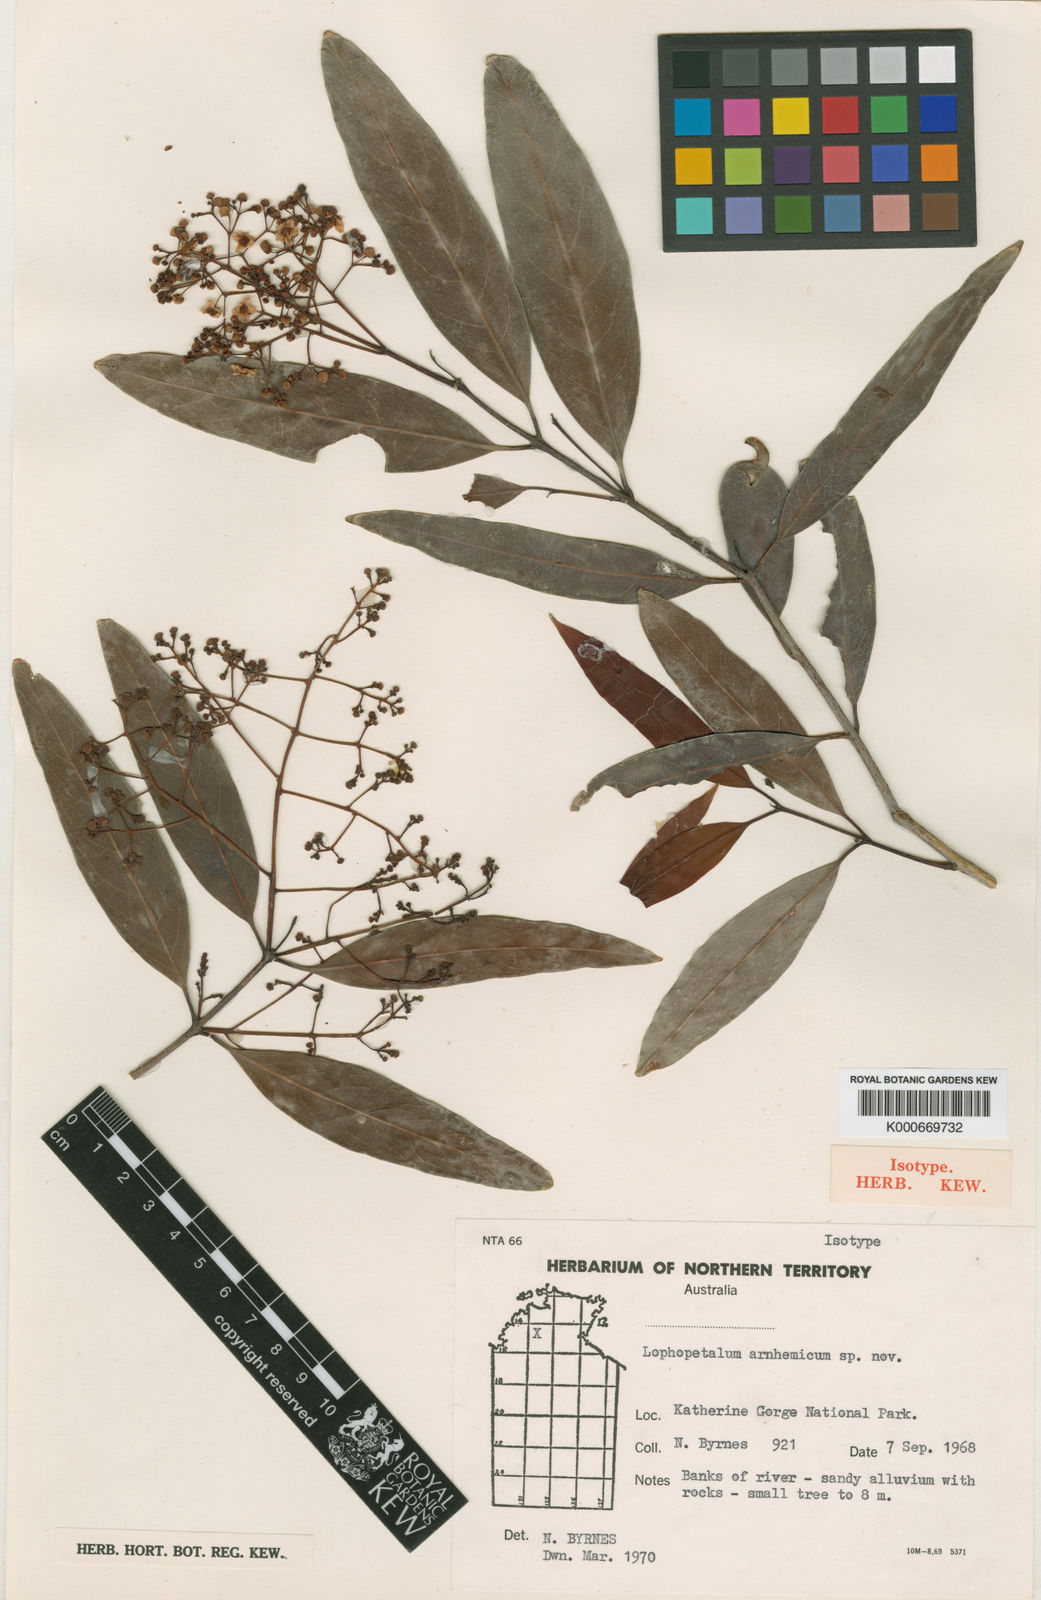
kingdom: Plantae
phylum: Tracheophyta
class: Magnoliopsida
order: Celastrales
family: Celastraceae
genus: Lophopetalum
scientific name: Lophopetalum arnhemicum
